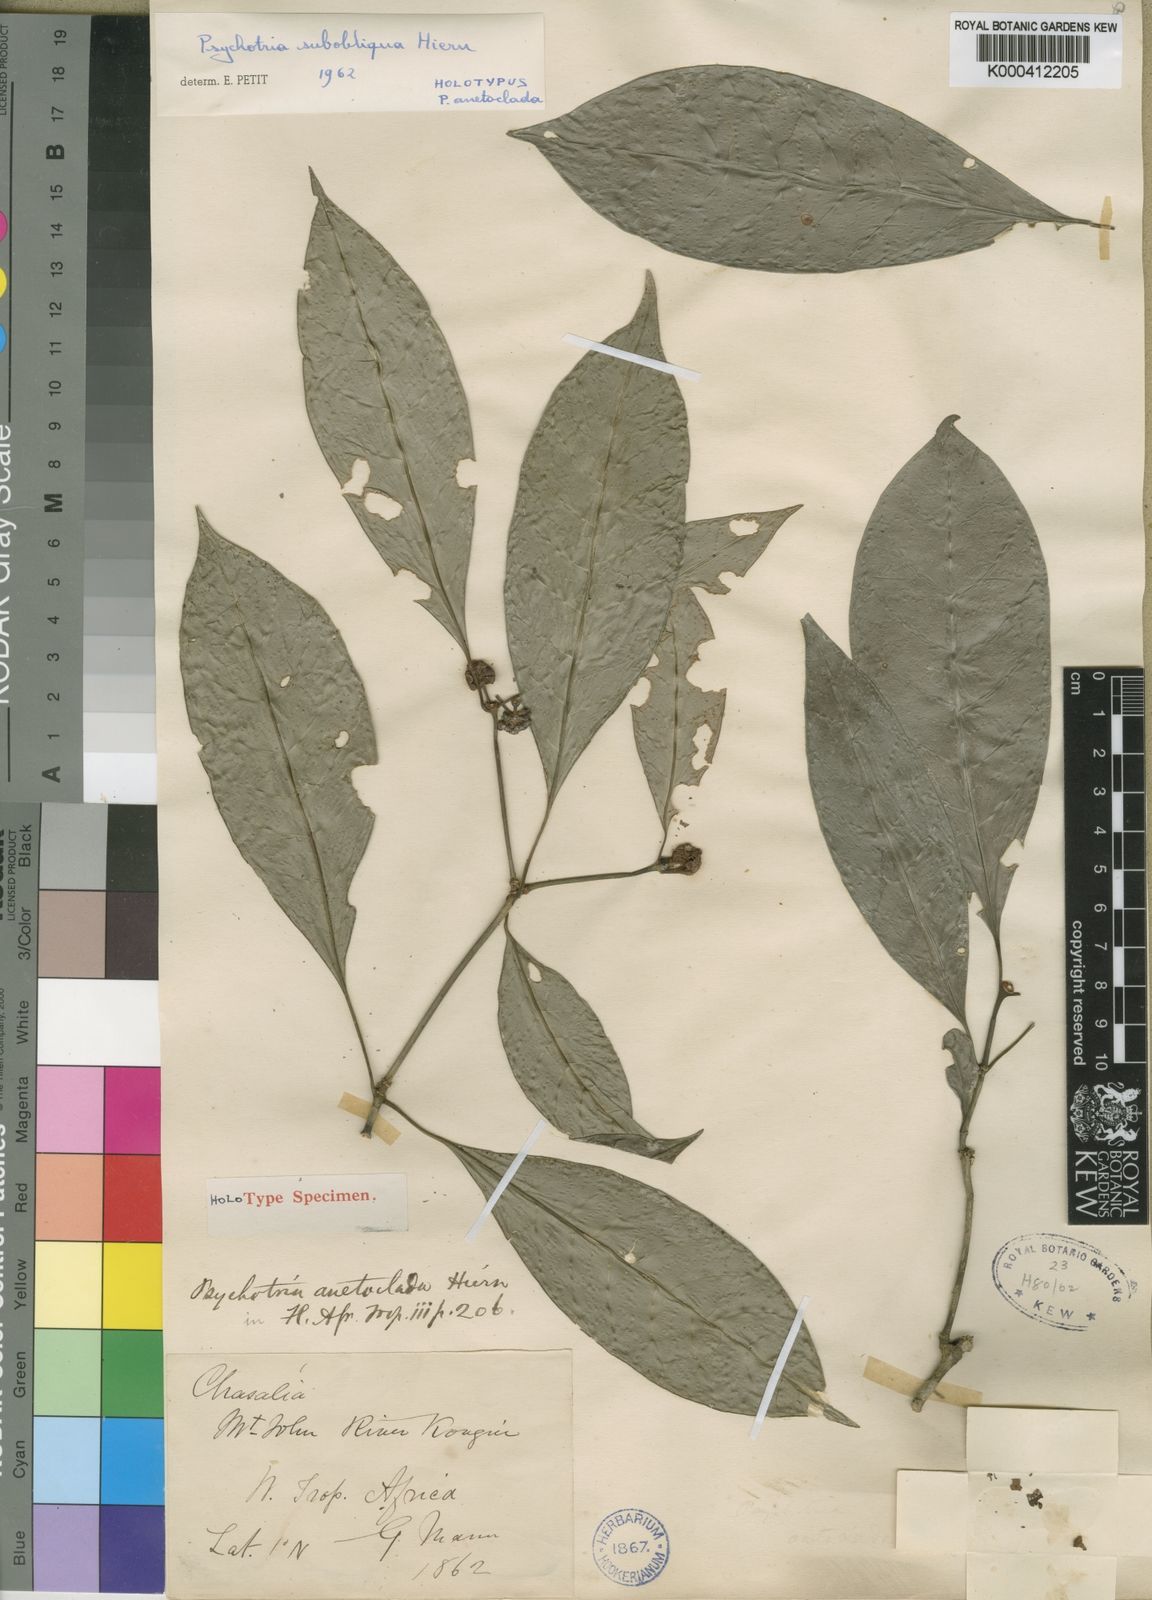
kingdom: Plantae
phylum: Tracheophyta
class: Magnoliopsida
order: Gentianales
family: Rubiaceae
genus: Psychotria
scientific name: Psychotria subobliqua
